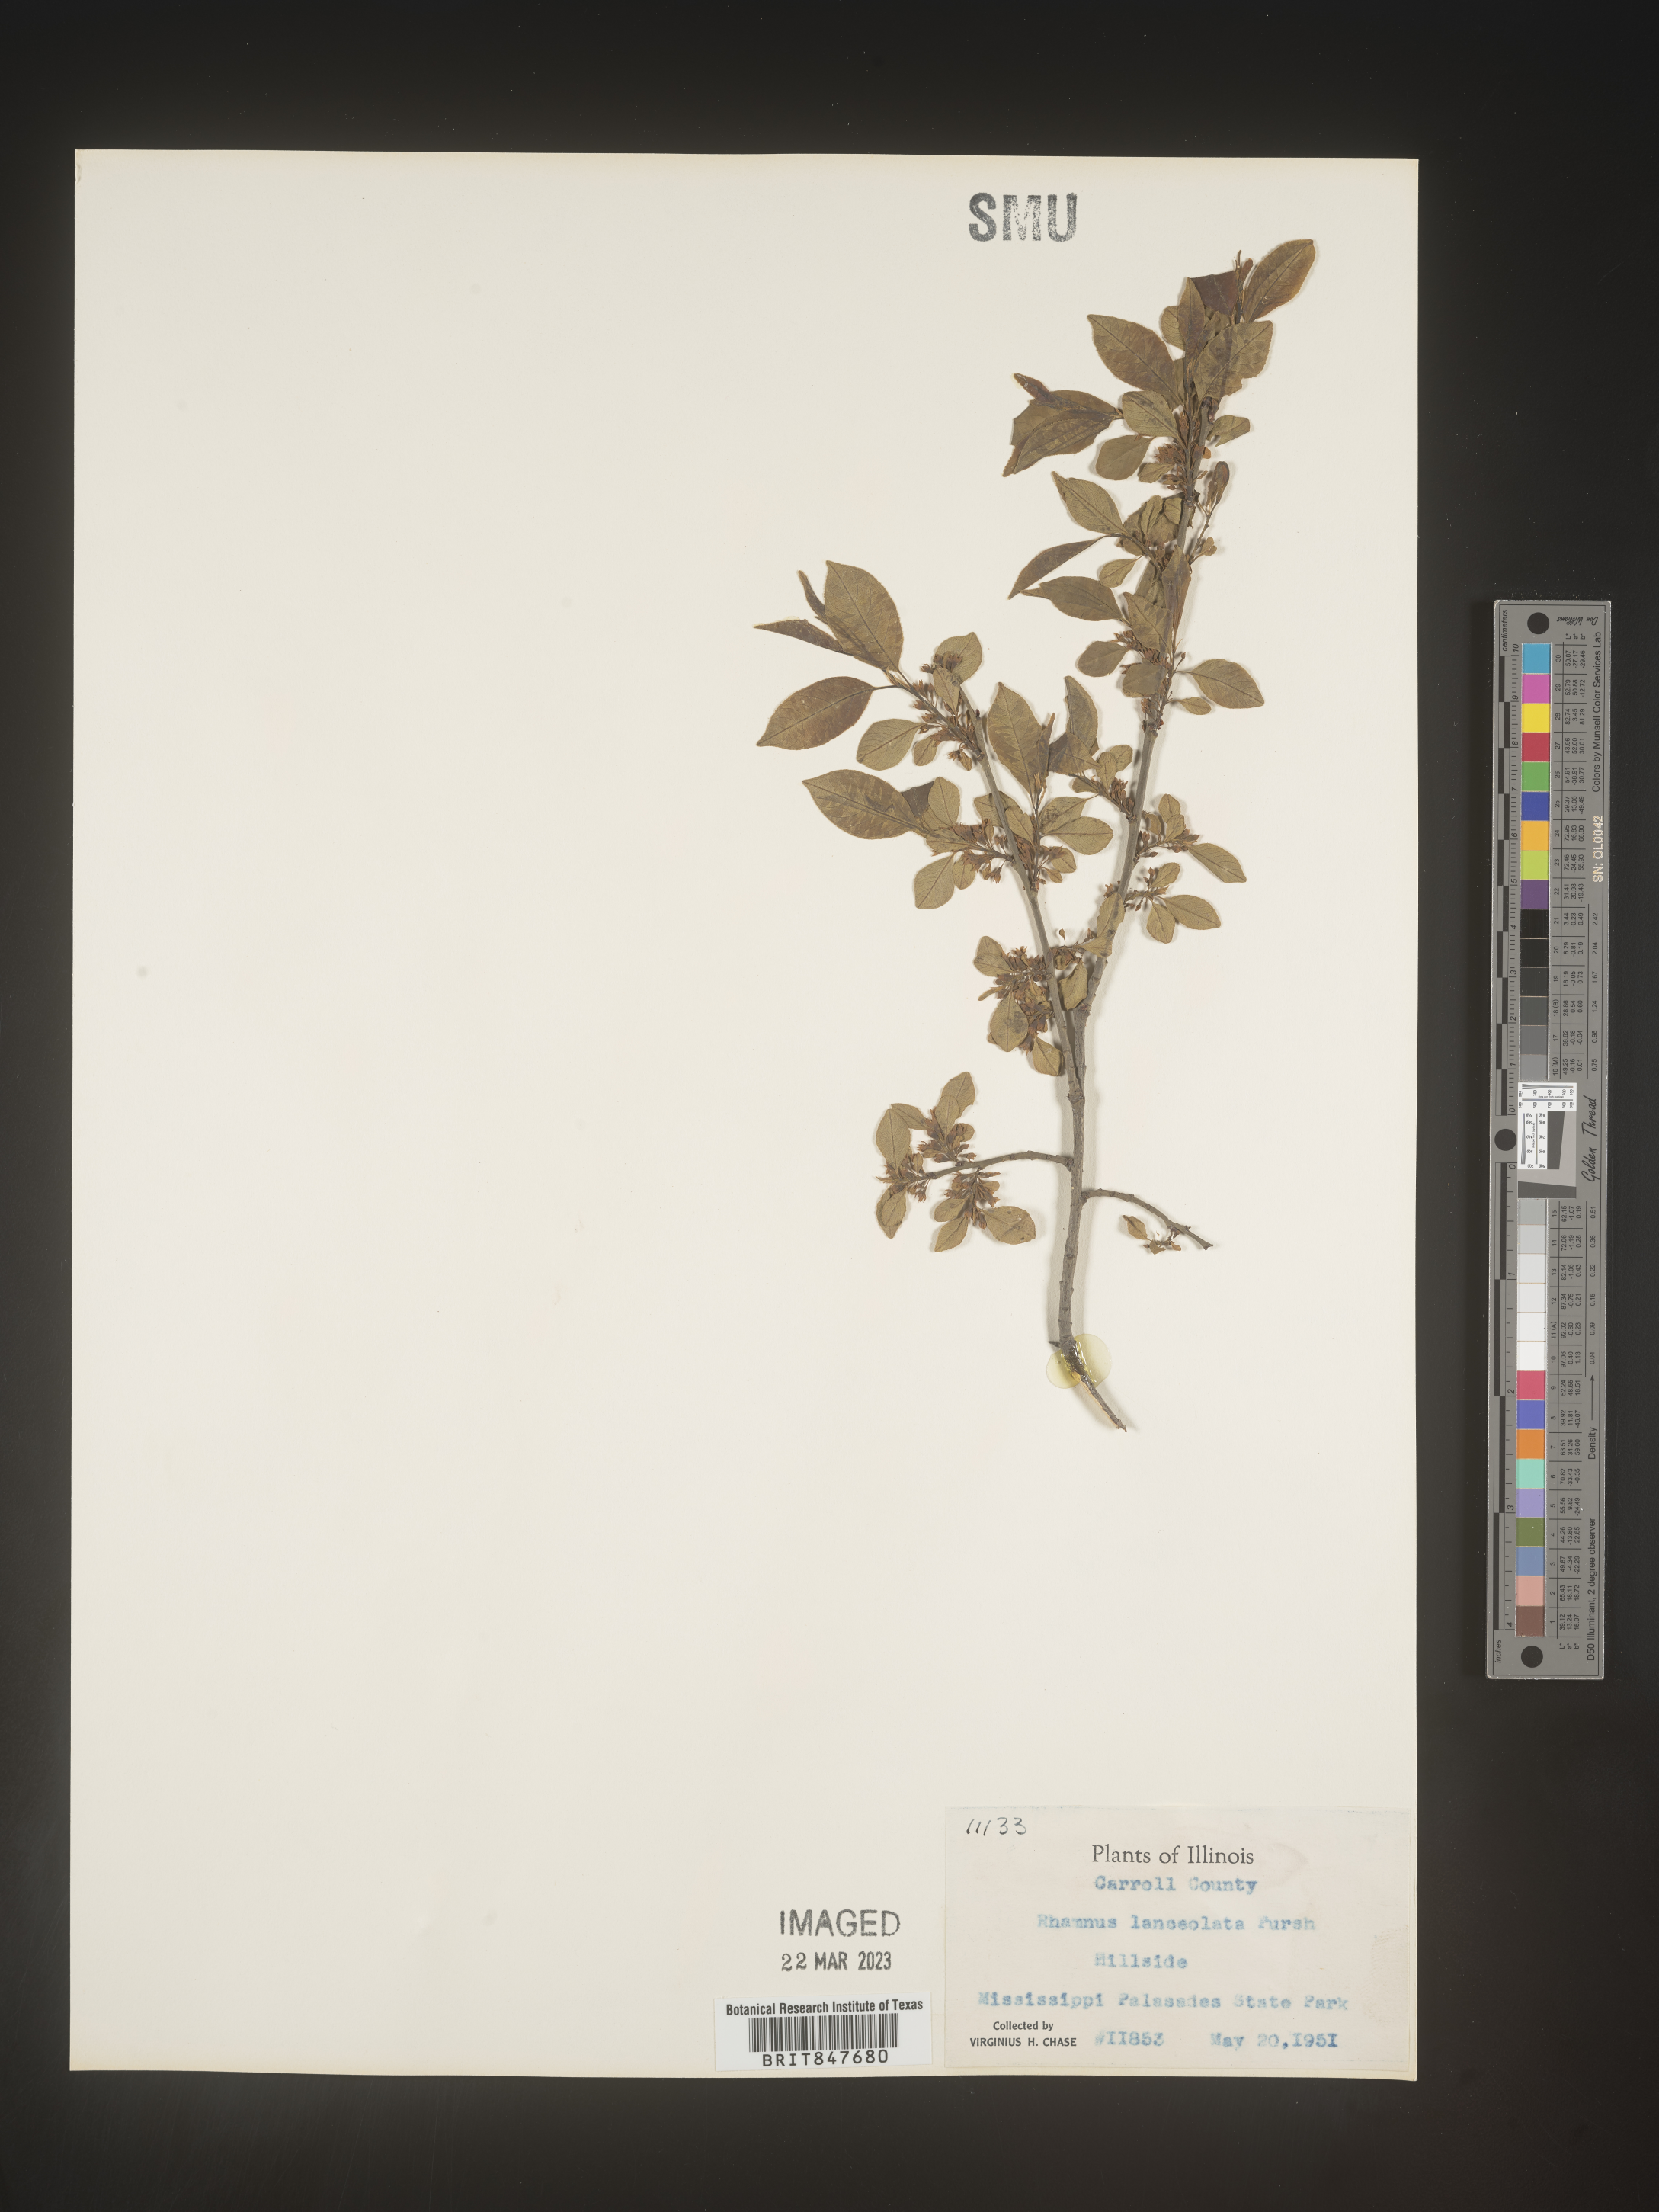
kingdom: Plantae
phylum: Tracheophyta
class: Magnoliopsida
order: Rosales
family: Rhamnaceae
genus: Endotropis
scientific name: Endotropis lanceolata
